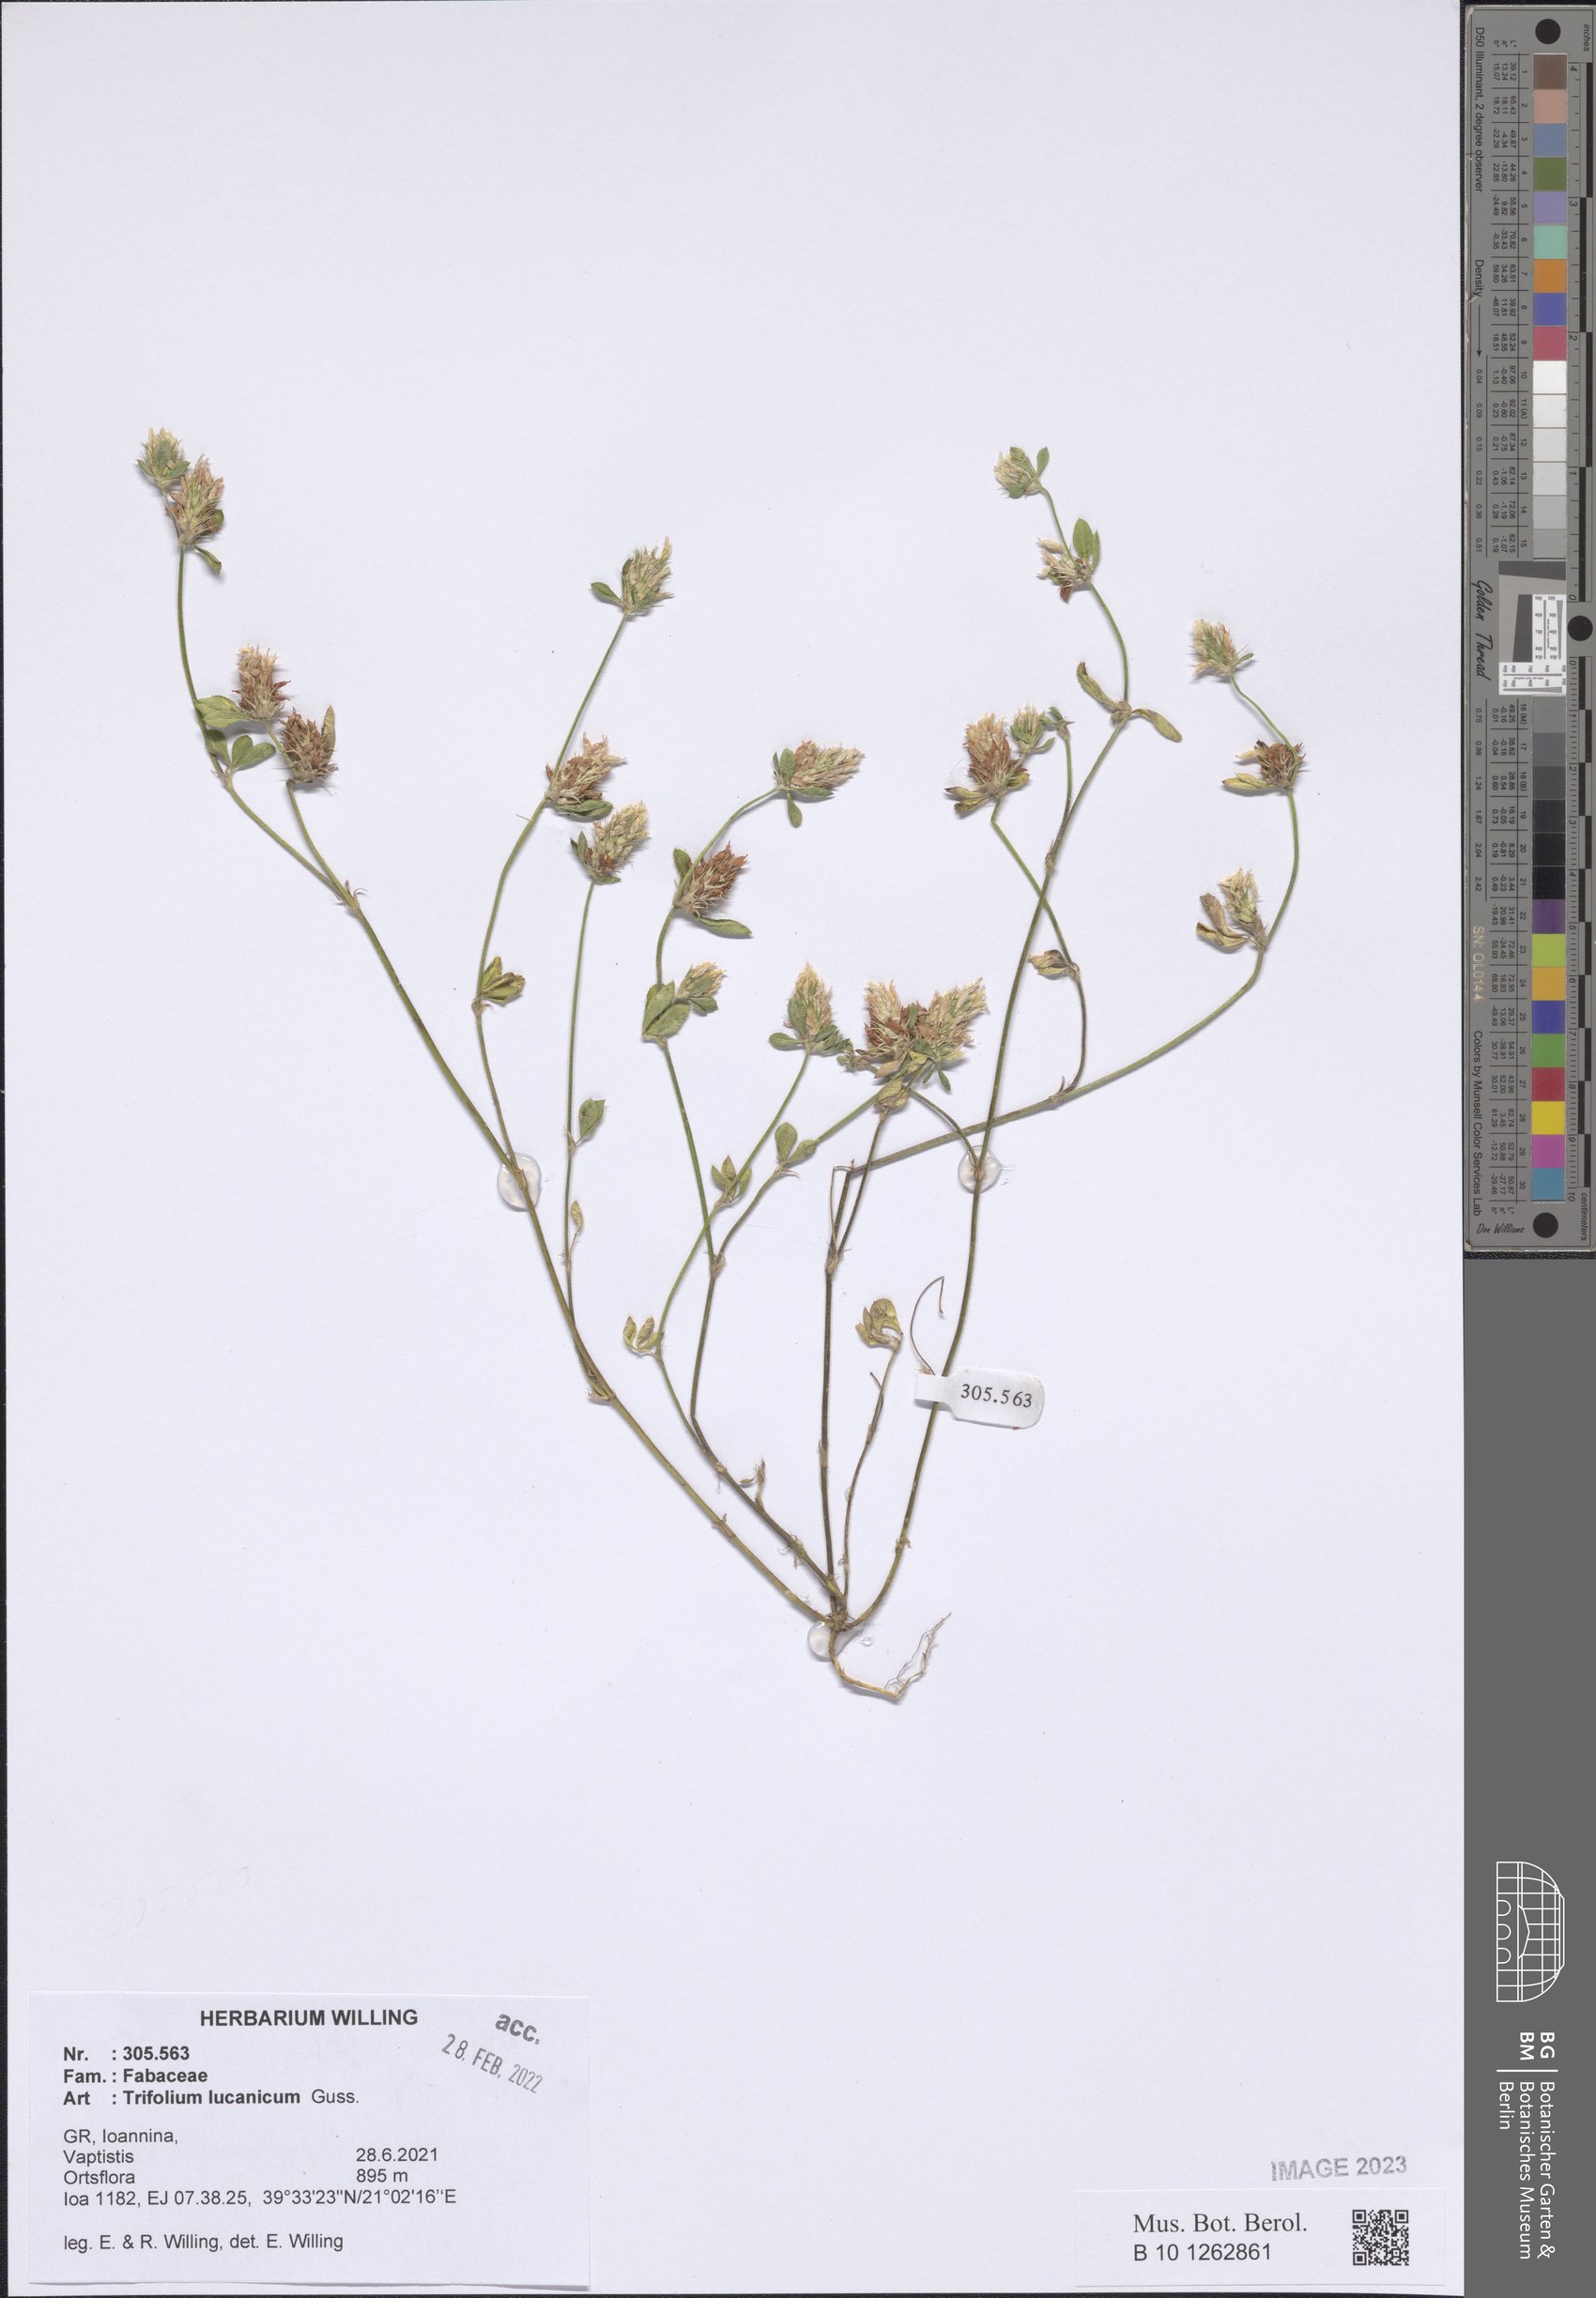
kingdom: Plantae
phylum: Tracheophyta
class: Magnoliopsida
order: Fabales
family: Fabaceae
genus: Trifolium
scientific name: Trifolium lucanicum
